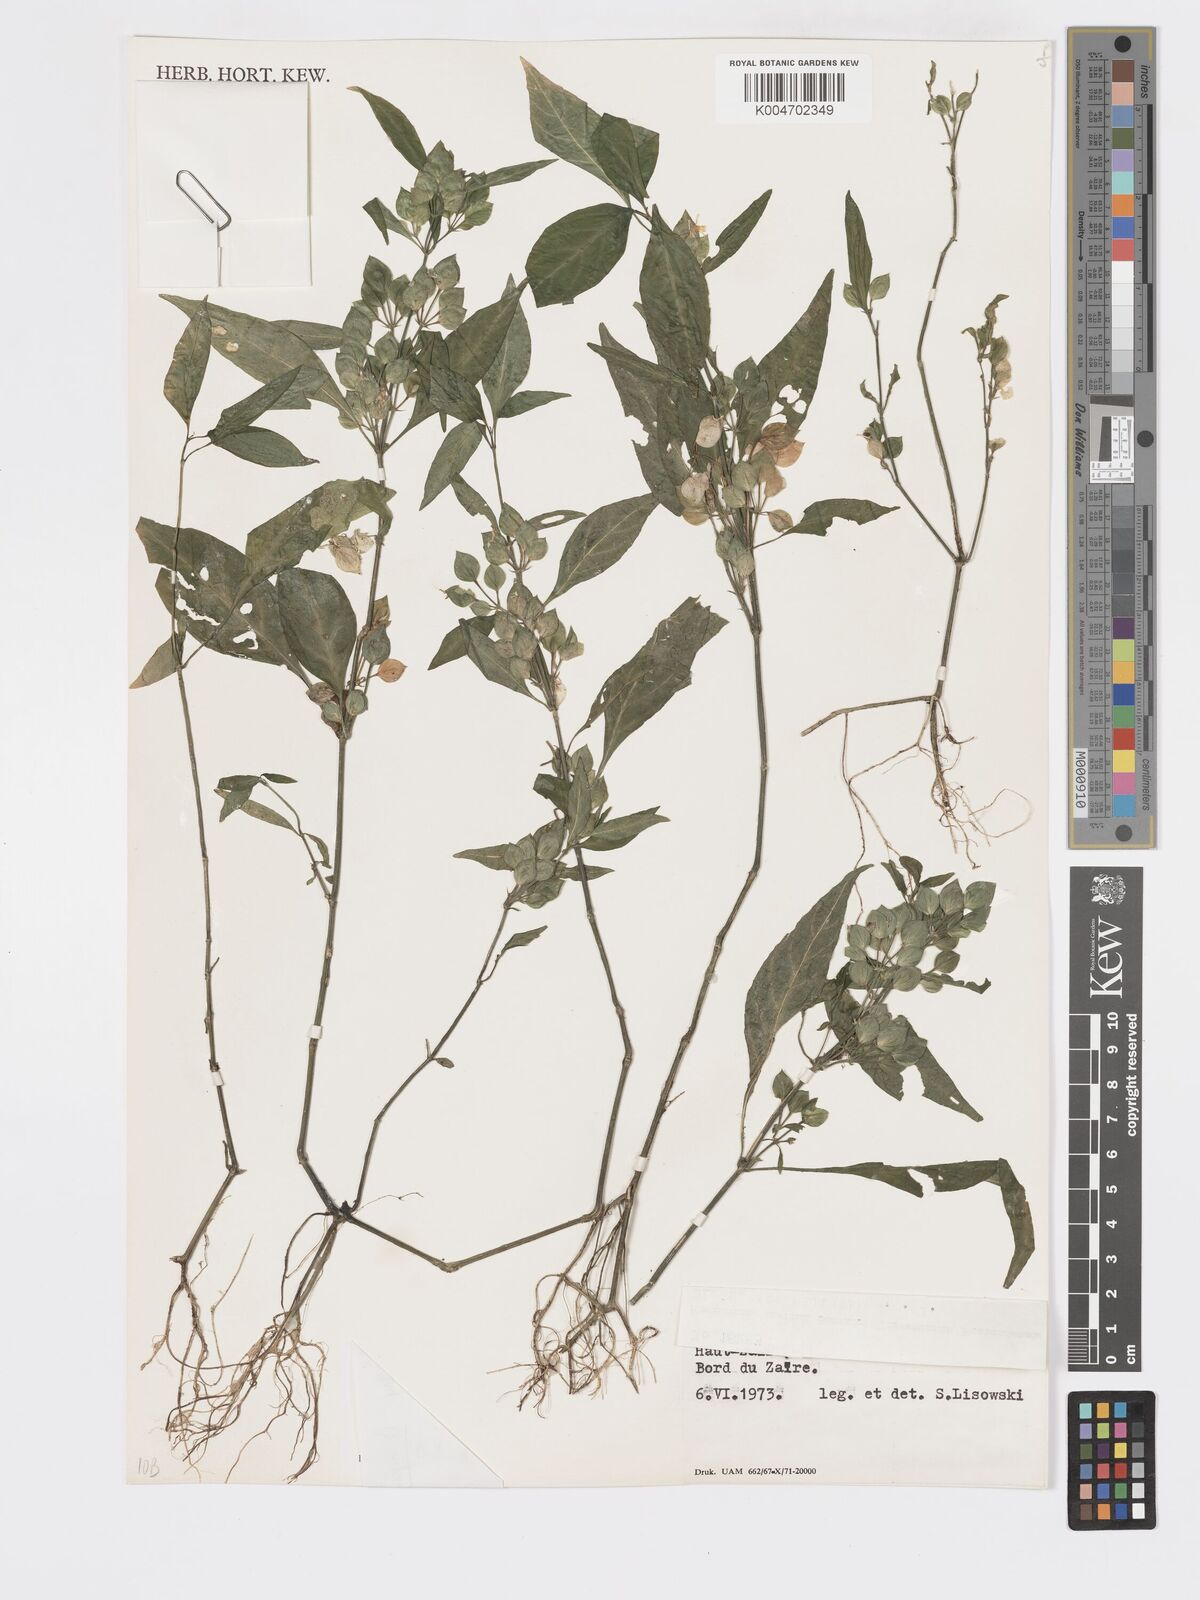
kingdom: Plantae
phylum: Tracheophyta
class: Magnoliopsida
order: Lamiales
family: Acanthaceae
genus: Dicliptera
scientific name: Dicliptera elliotii
